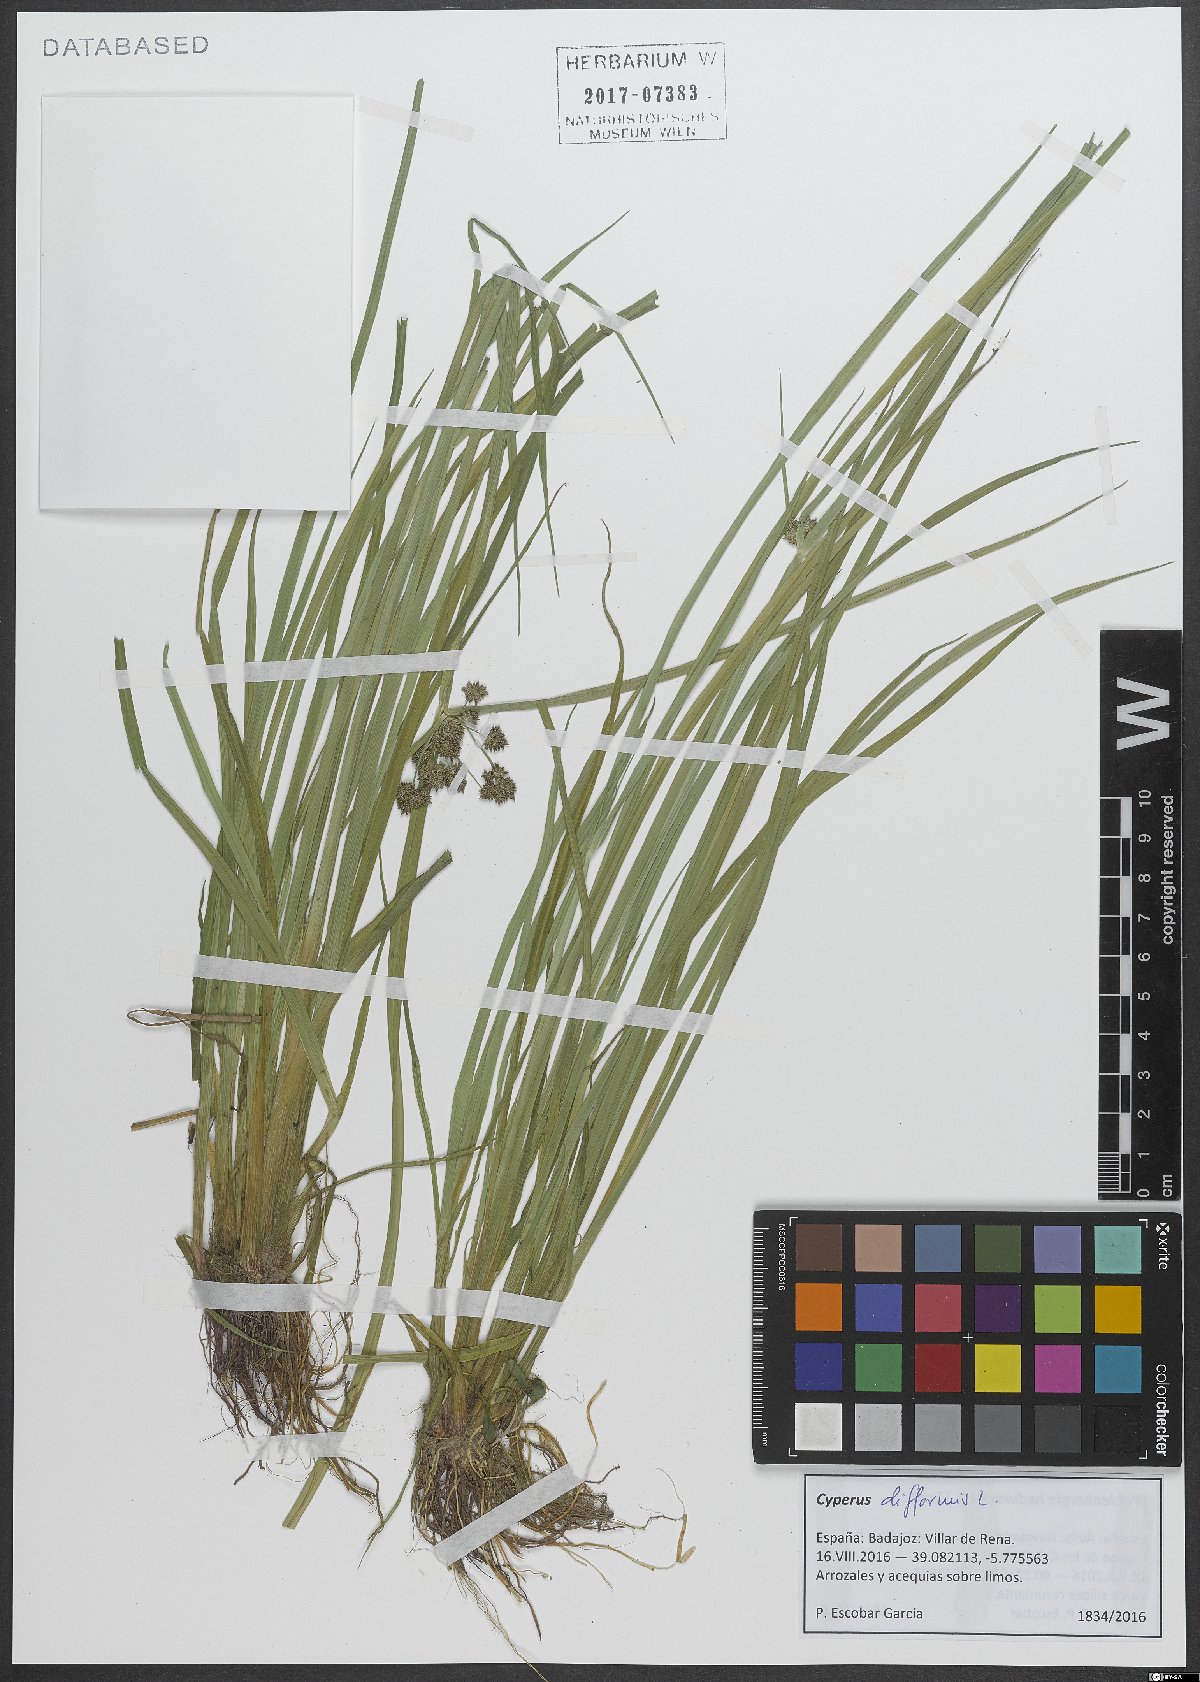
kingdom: Plantae
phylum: Tracheophyta
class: Liliopsida
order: Poales
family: Cyperaceae
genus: Cyperus
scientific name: Cyperus difformis
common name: Variable flatsedge
